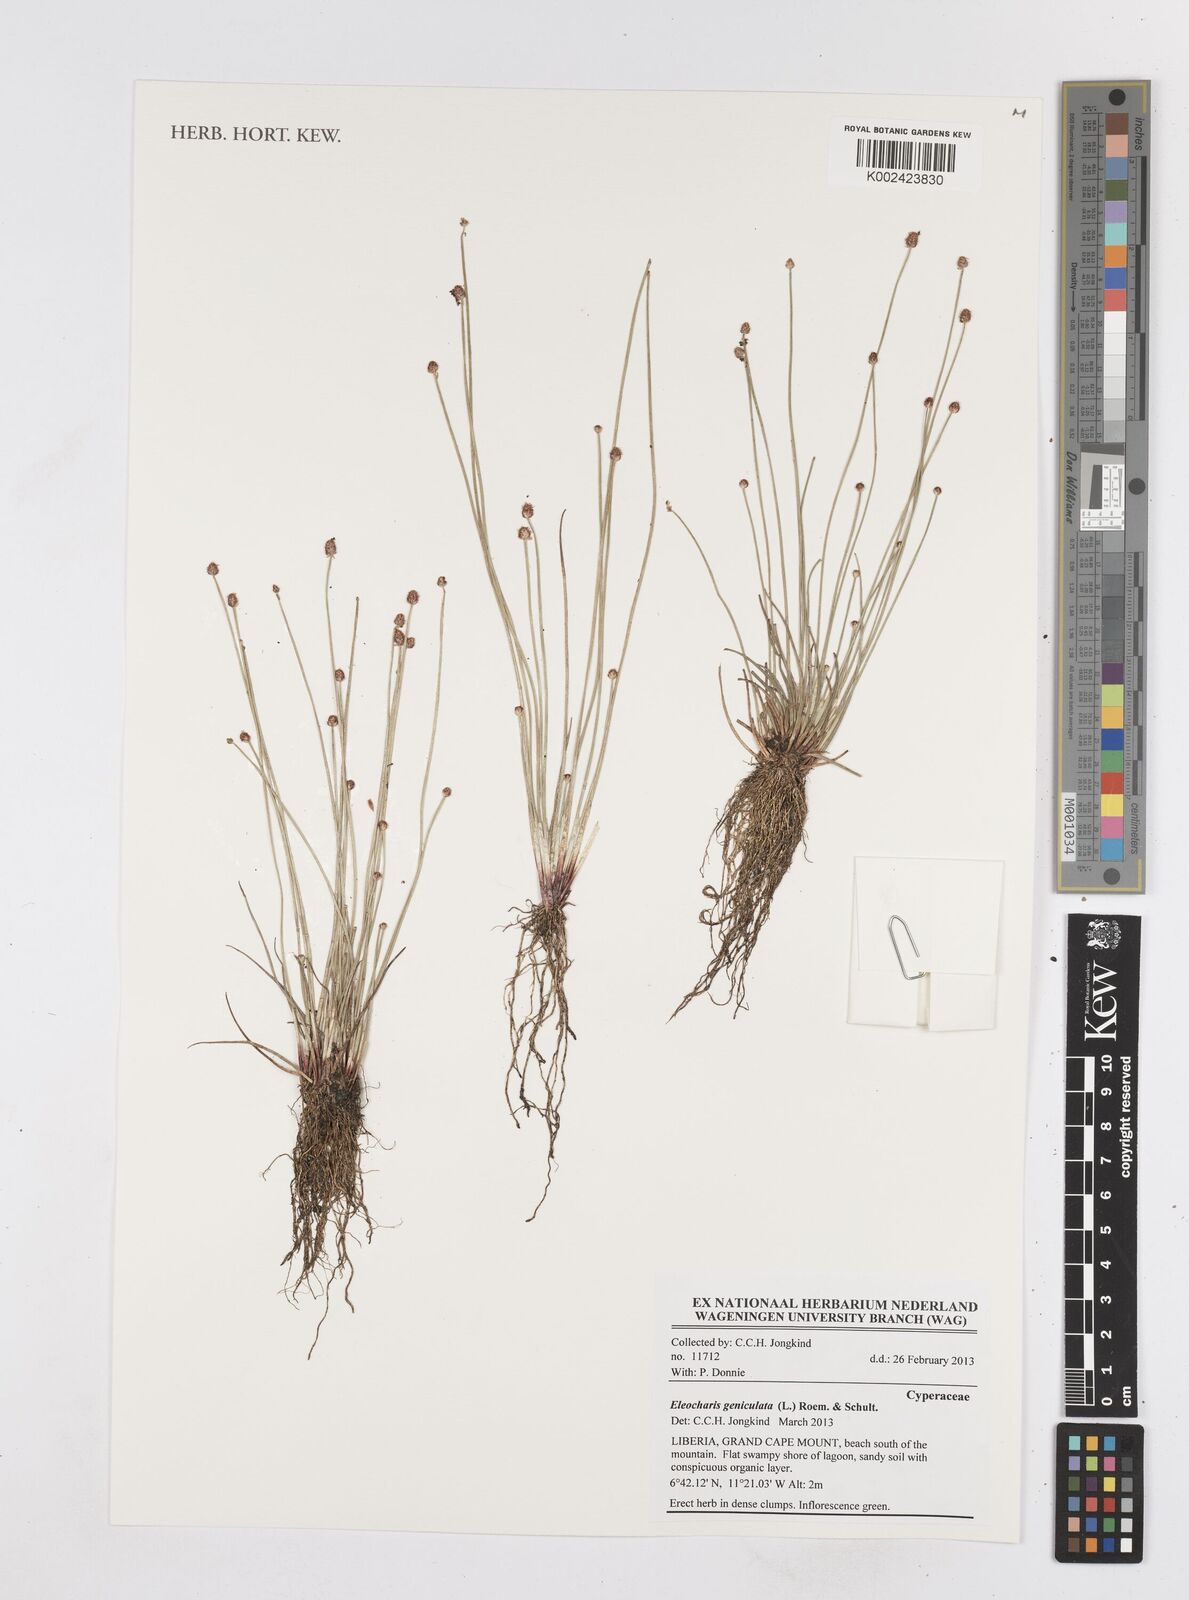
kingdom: Plantae
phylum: Tracheophyta
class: Liliopsida
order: Poales
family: Cyperaceae
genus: Eleocharis
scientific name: Eleocharis geniculata
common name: Canada spikesedge
